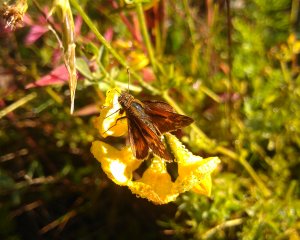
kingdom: Animalia
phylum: Arthropoda
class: Insecta
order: Lepidoptera
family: Hesperiidae
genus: Polites
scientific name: Polites coras
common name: Peck's Skipper
